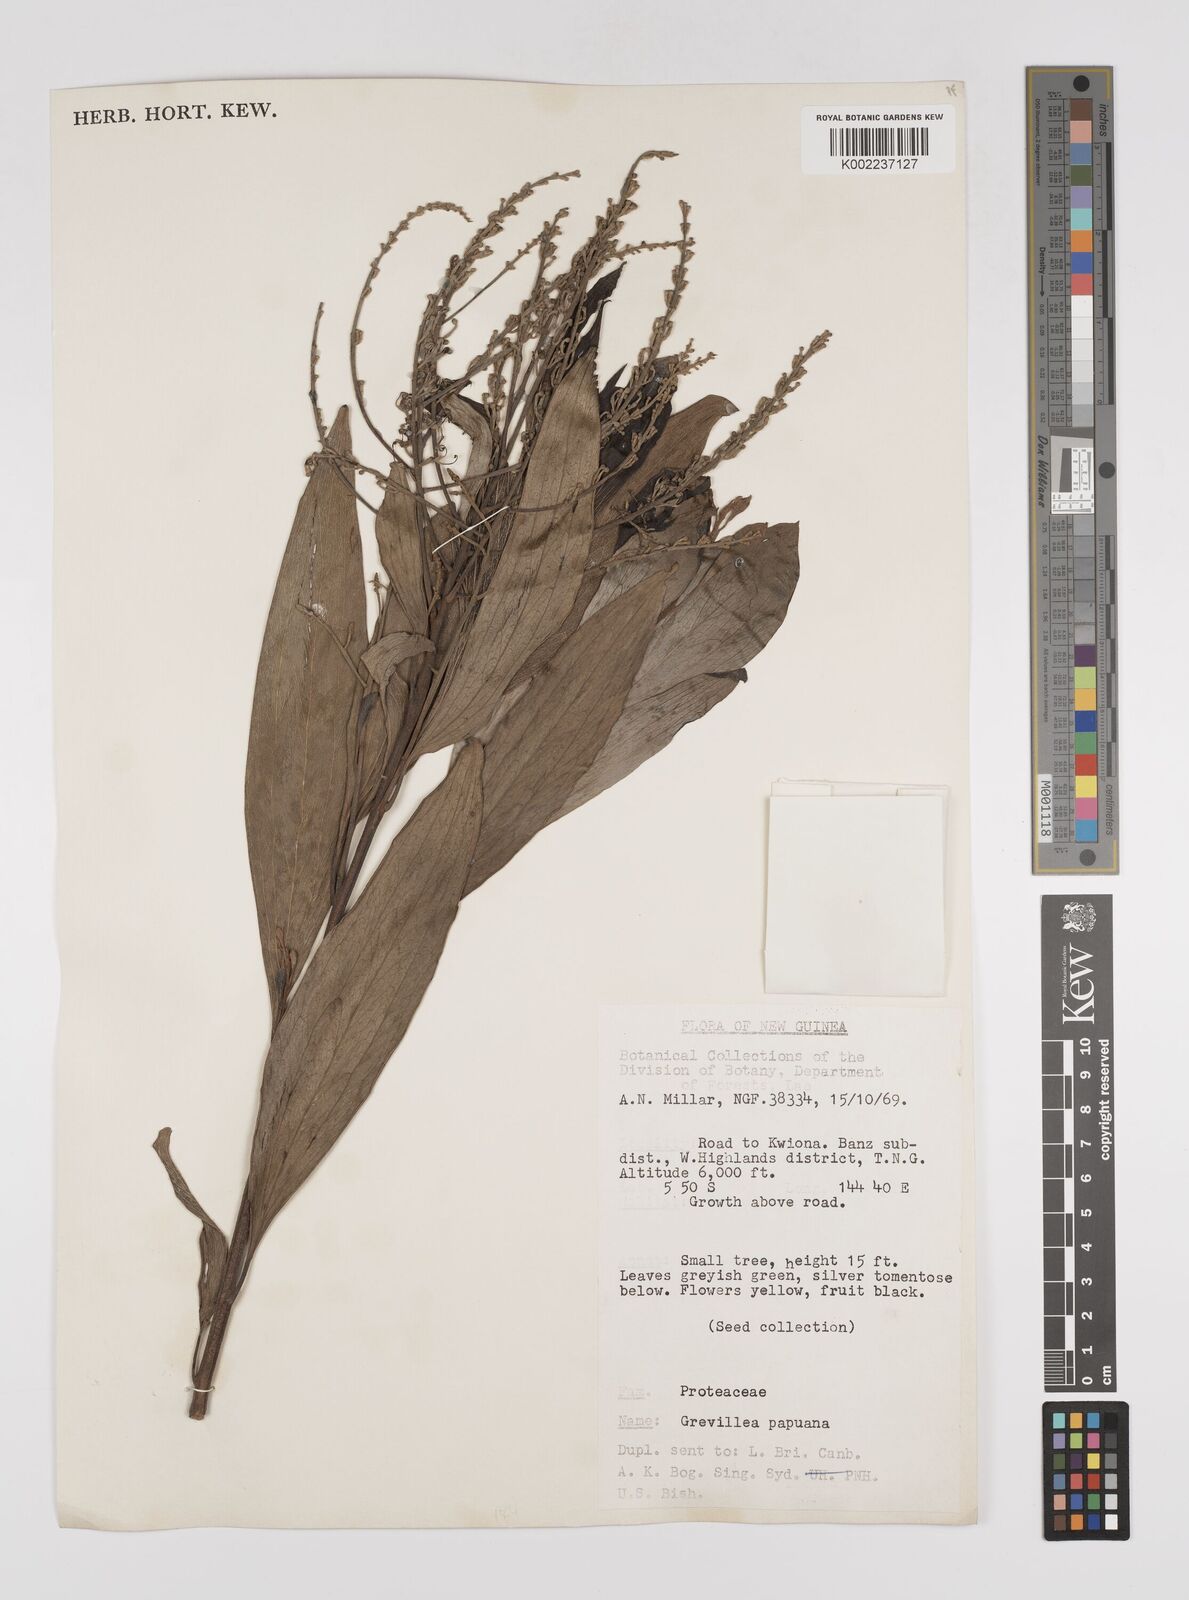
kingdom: Plantae
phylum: Tracheophyta
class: Magnoliopsida
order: Proteales
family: Proteaceae
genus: Grevillea
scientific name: Grevillea papuana
